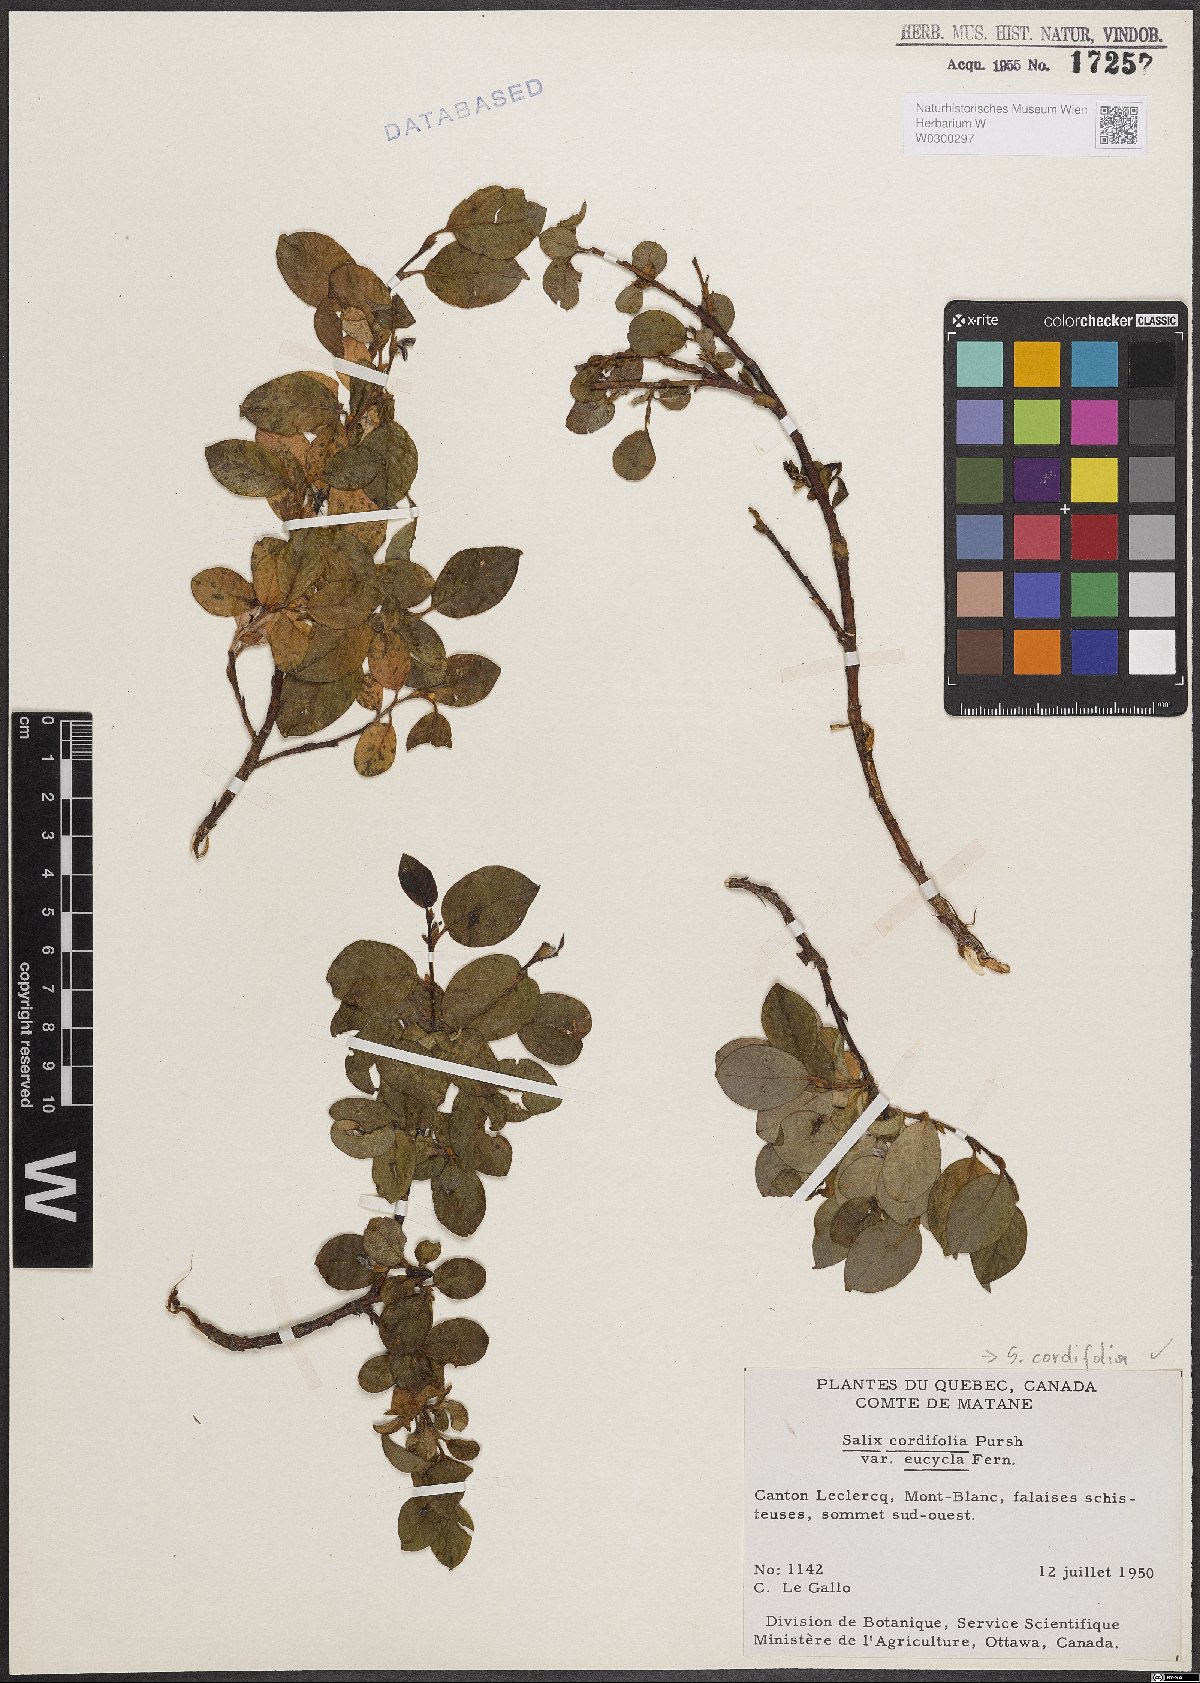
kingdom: Plantae
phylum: Tracheophyta
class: Magnoliopsida
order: Malpighiales
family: Salicaceae
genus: Salix
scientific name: Salix
